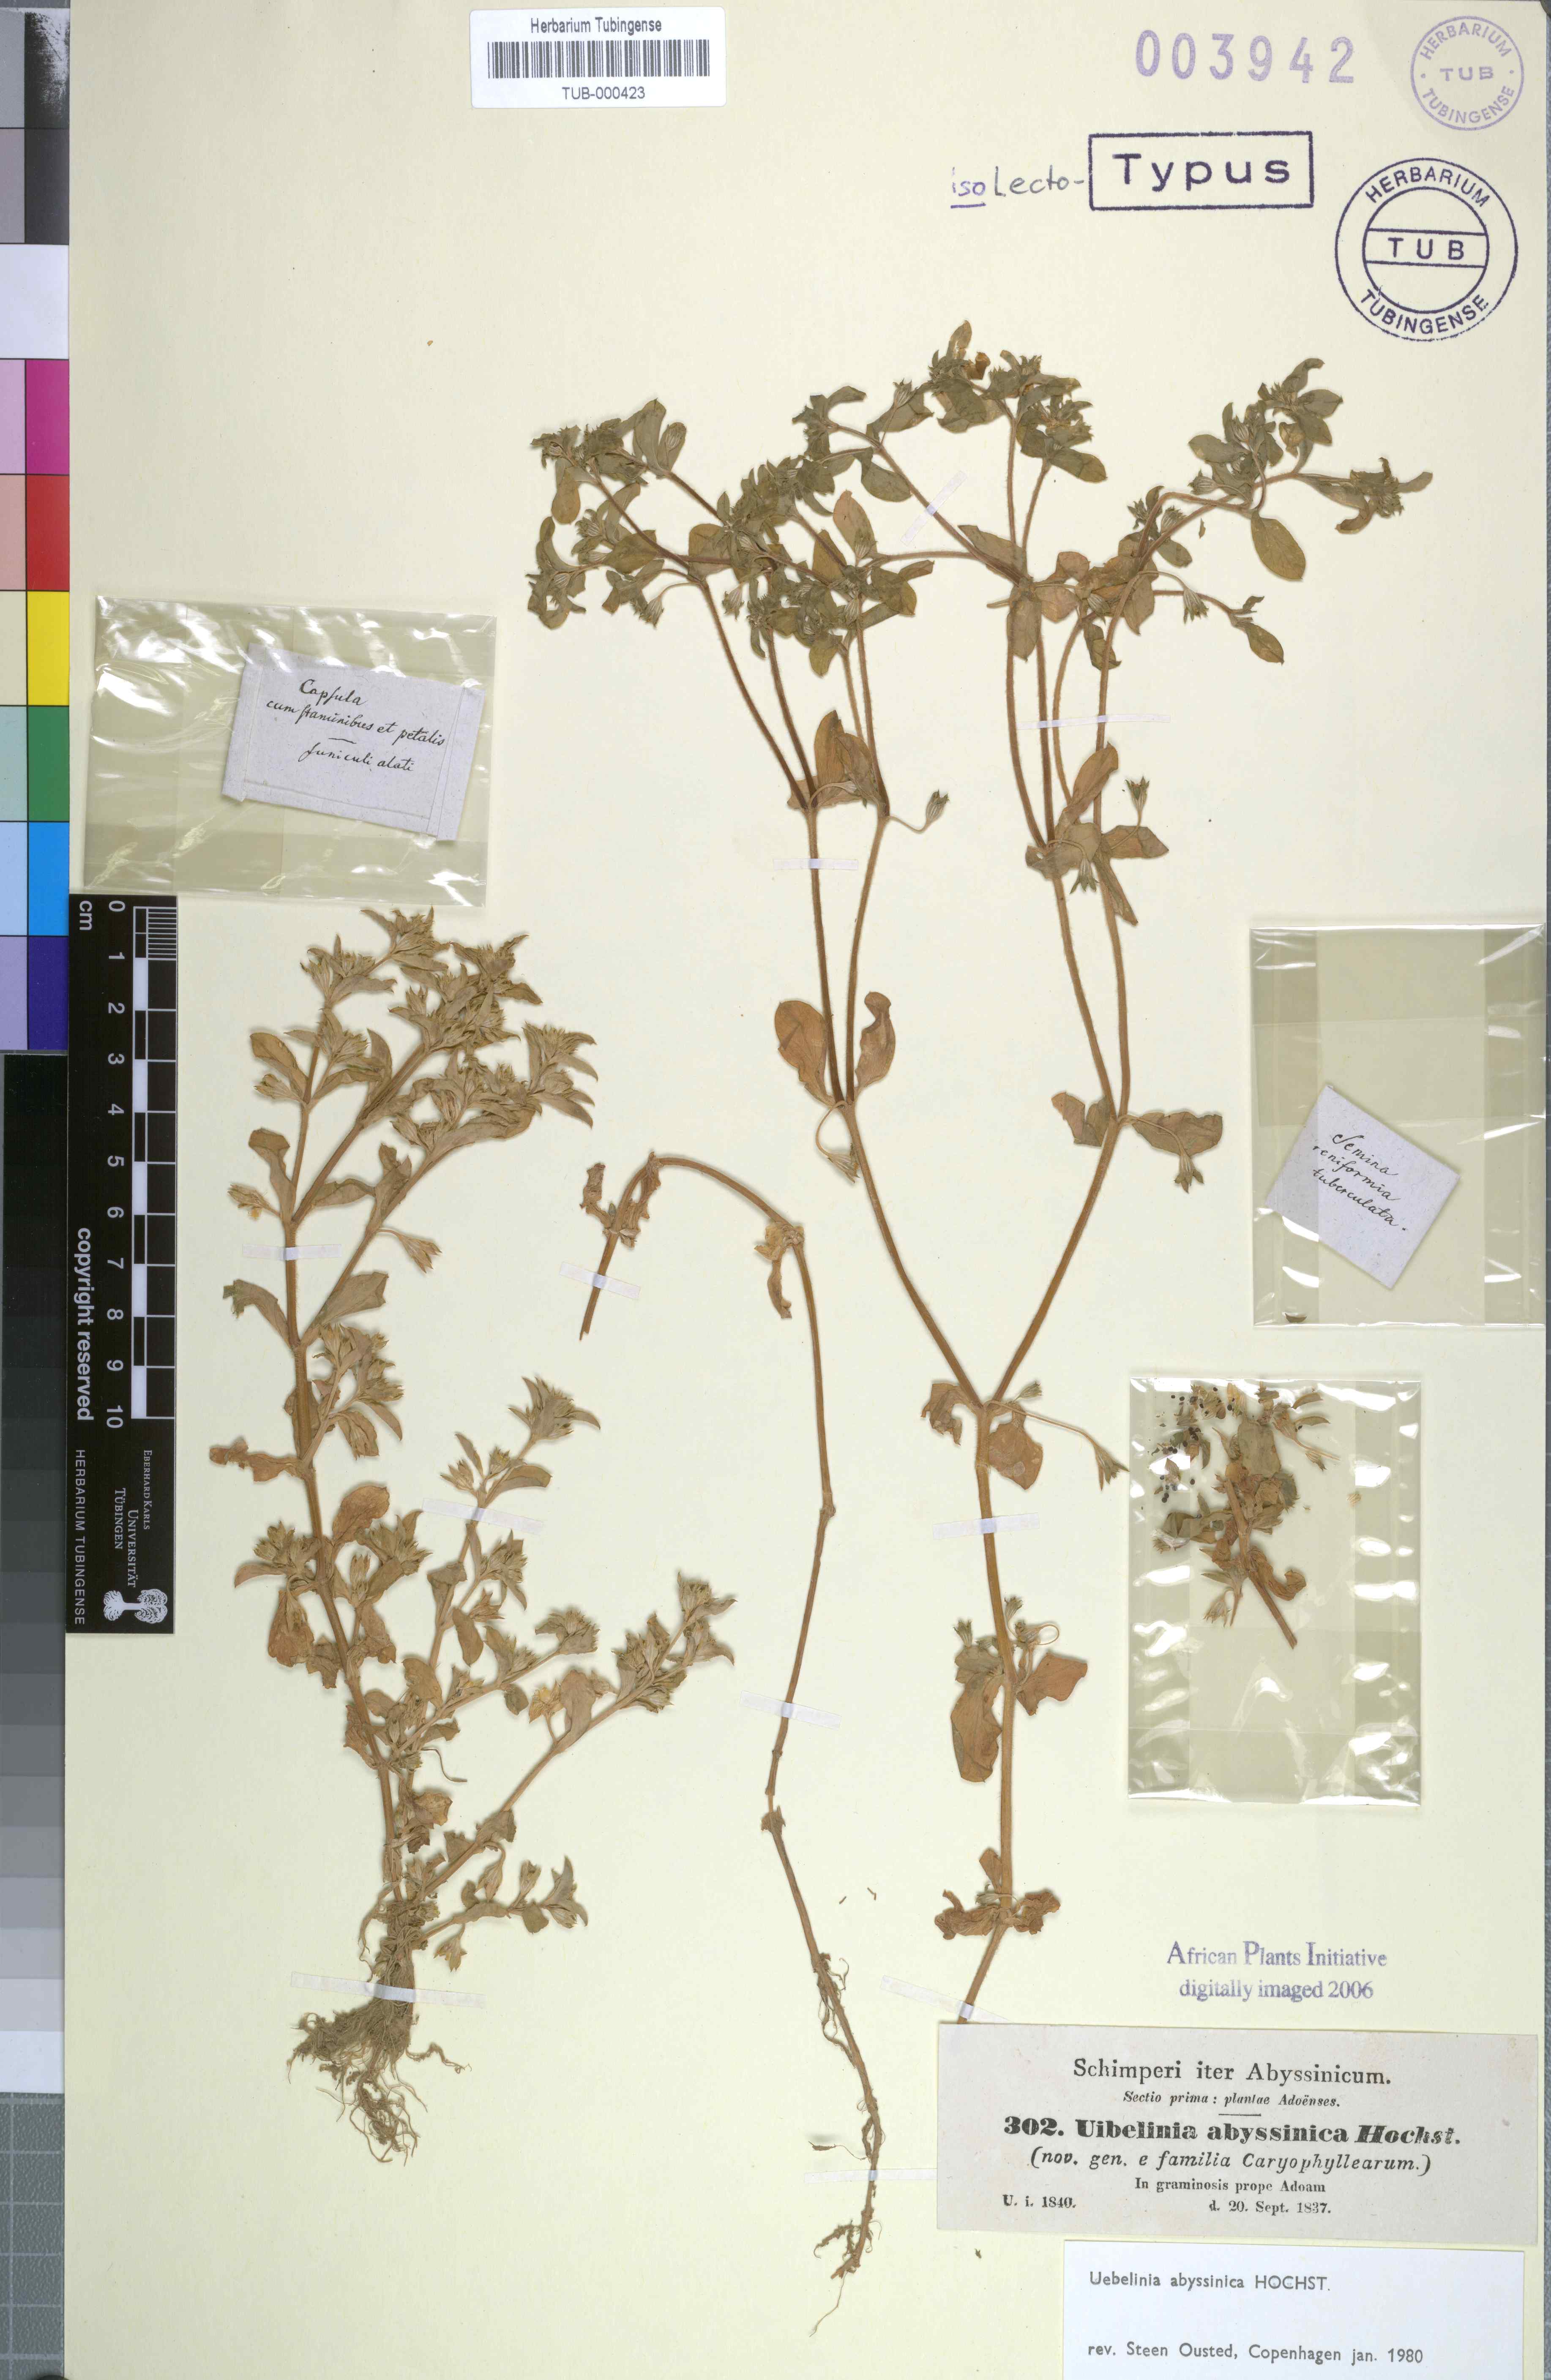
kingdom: Plantae
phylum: Tracheophyta
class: Magnoliopsida
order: Caryophyllales
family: Caryophyllaceae
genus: Silene
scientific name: Silene abyssinica
